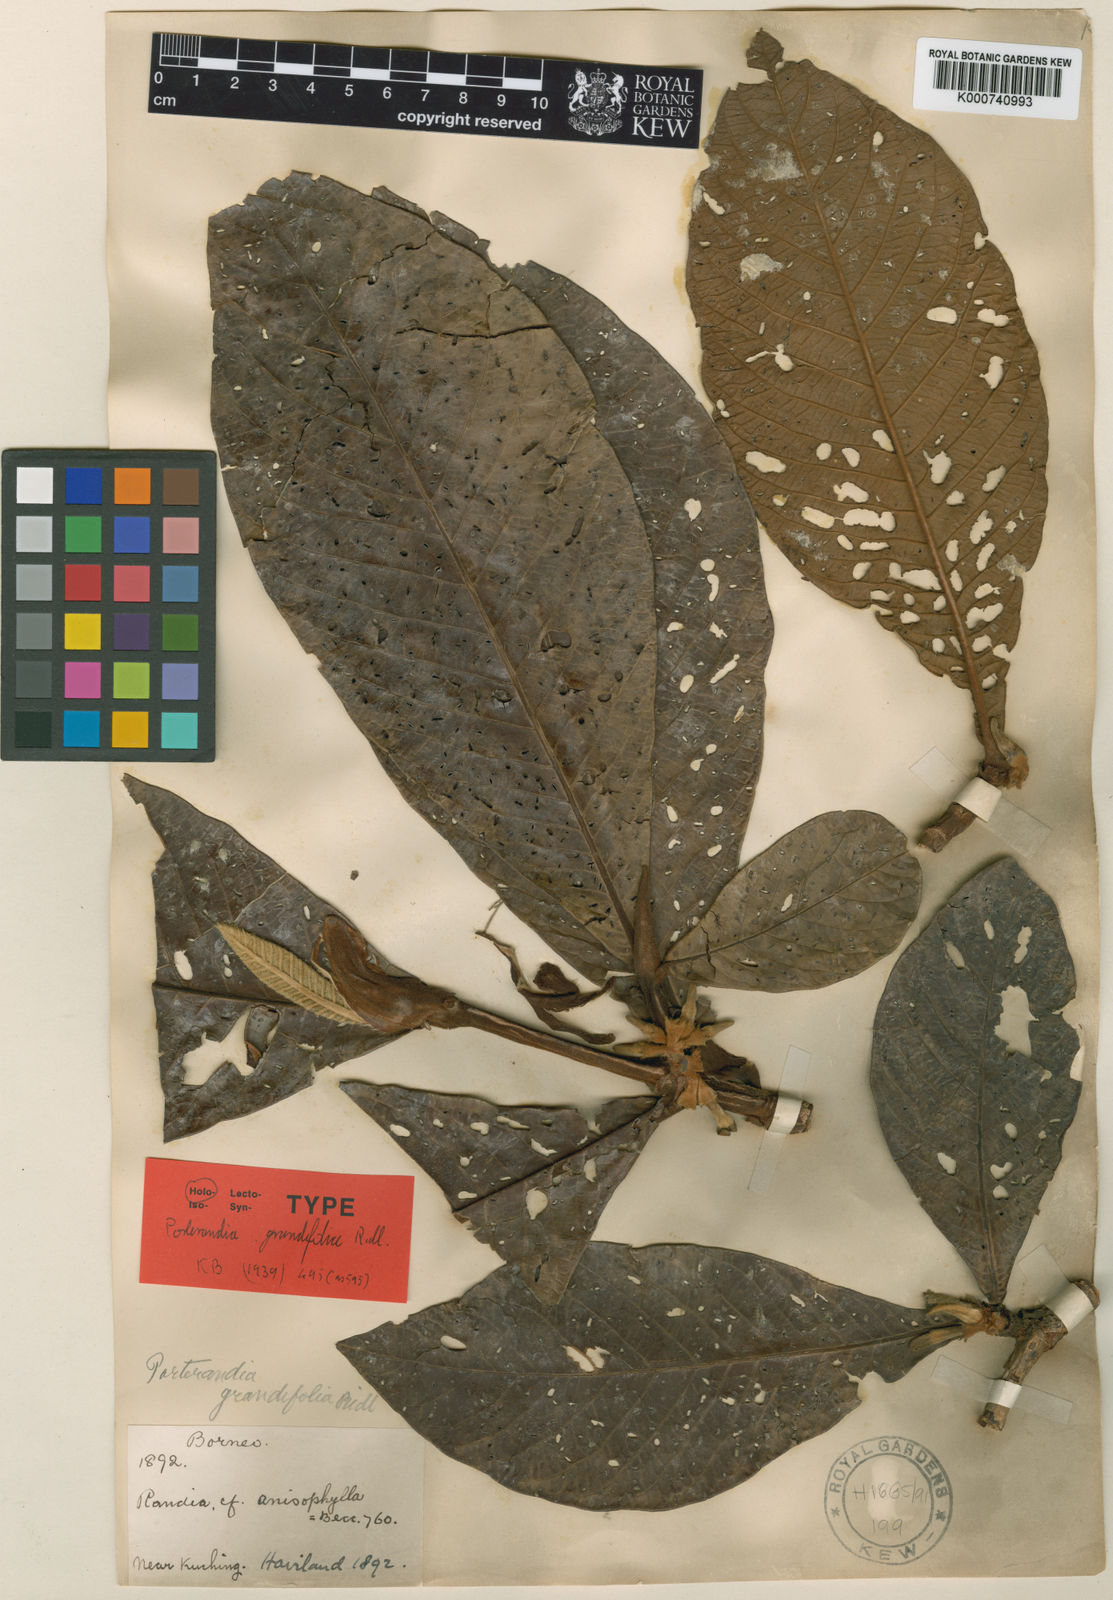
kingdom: Plantae
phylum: Tracheophyta
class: Magnoliopsida
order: Gentianales
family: Rubiaceae
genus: Porterandia
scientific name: Porterandia grandifolia
